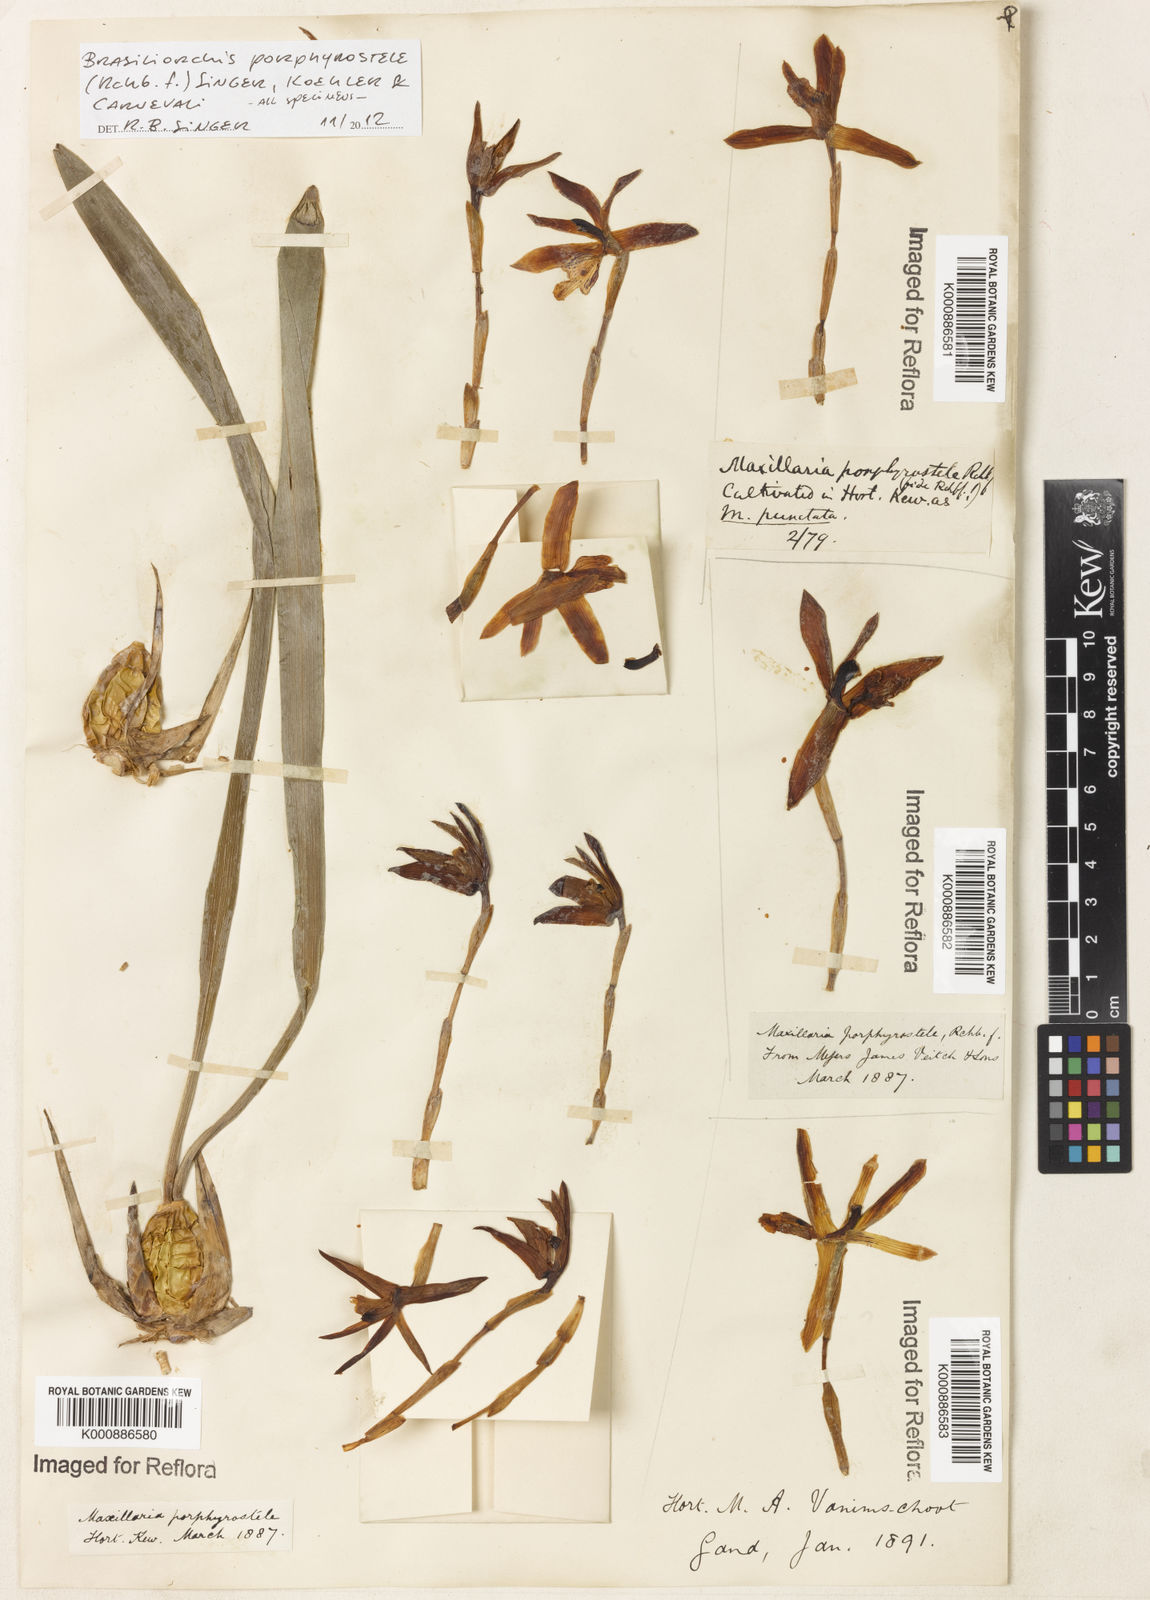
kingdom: Plantae
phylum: Tracheophyta
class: Liliopsida
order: Asparagales
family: Orchidaceae
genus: Maxillaria
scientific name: Maxillaria porphyrostele
